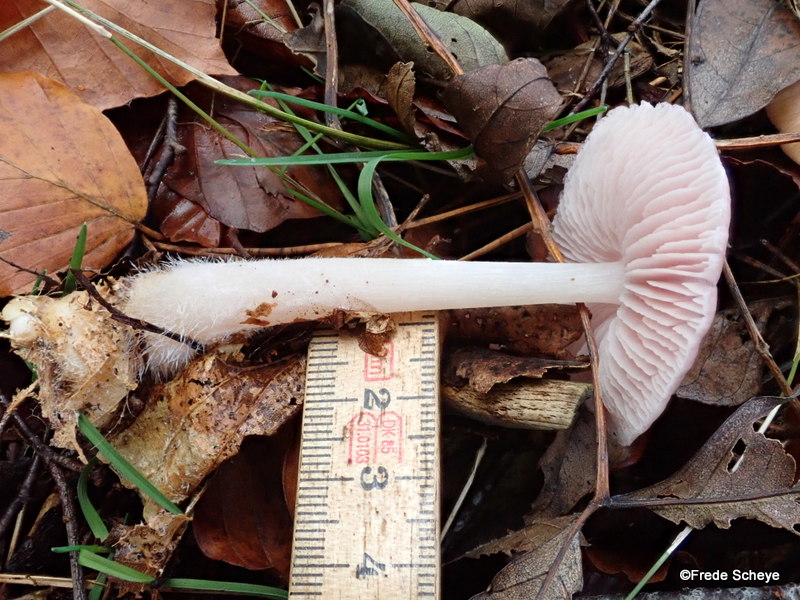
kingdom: Fungi
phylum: Basidiomycota
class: Agaricomycetes
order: Agaricales
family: Mycenaceae
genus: Mycena
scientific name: Mycena rosea
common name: rosa huesvamp
